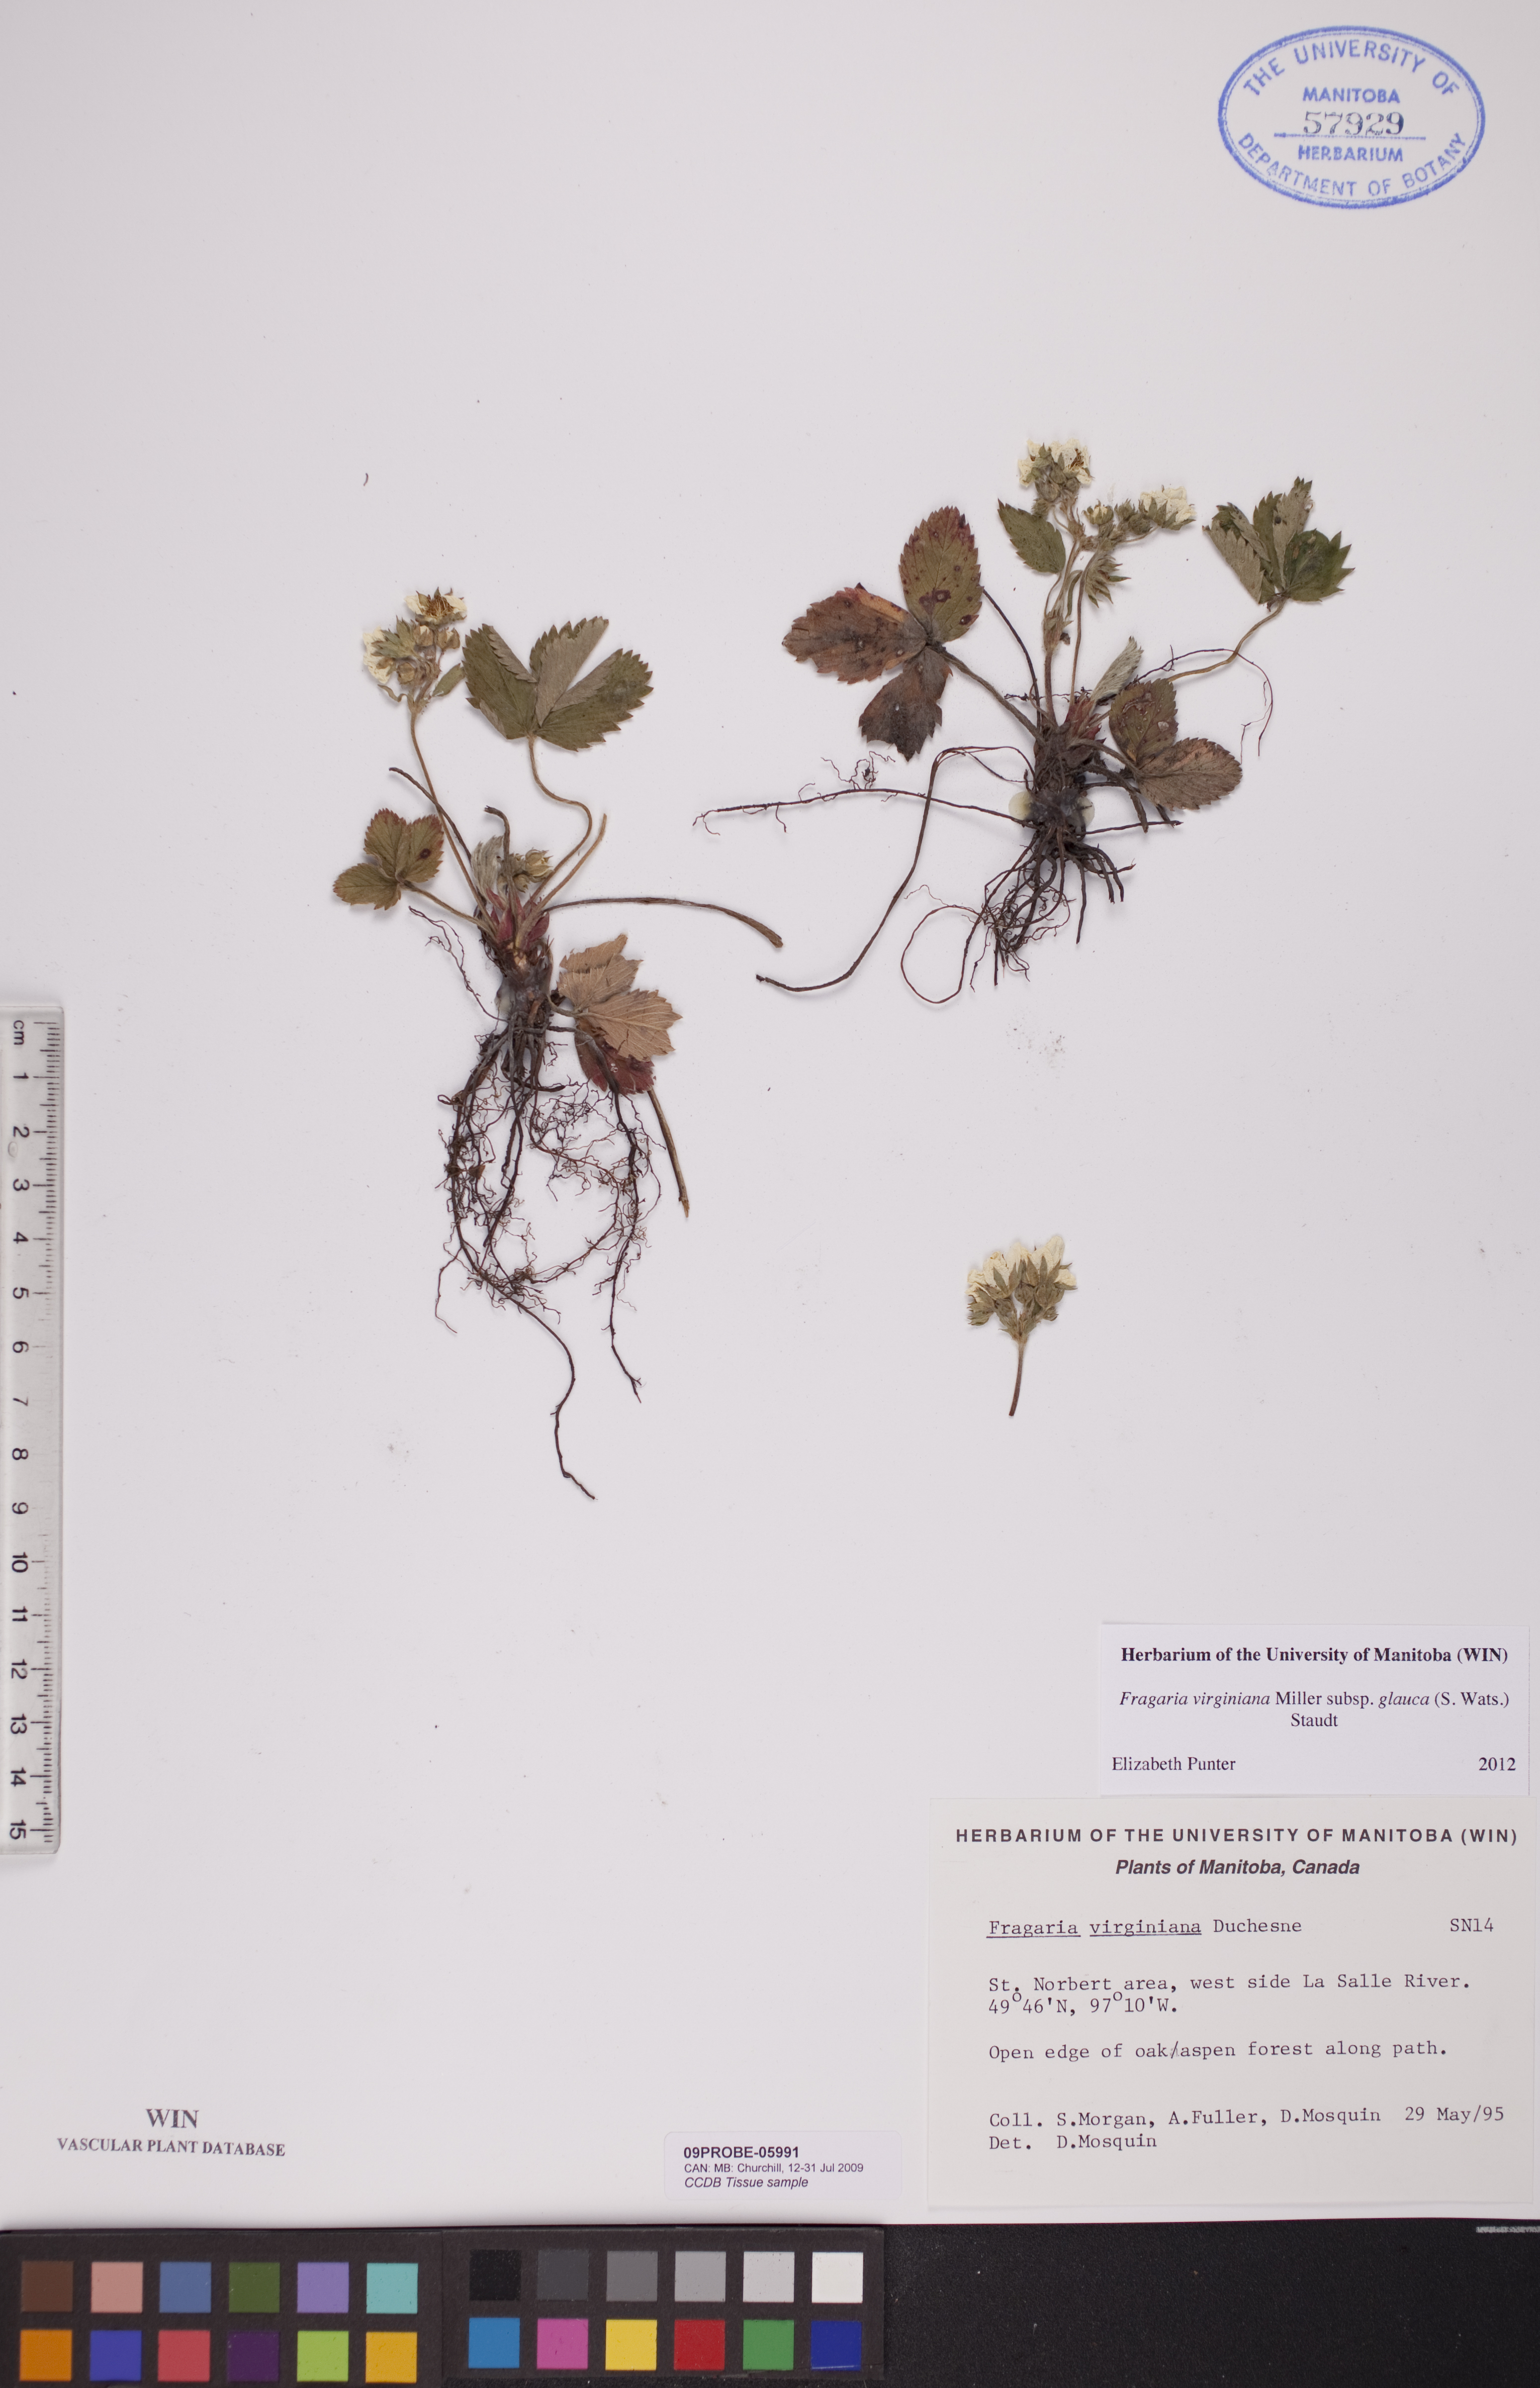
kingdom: Plantae
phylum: Tracheophyta
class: Magnoliopsida
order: Rosales
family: Rosaceae
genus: Fragaria
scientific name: Fragaria virginiana
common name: Thickleaved wild strawberry
